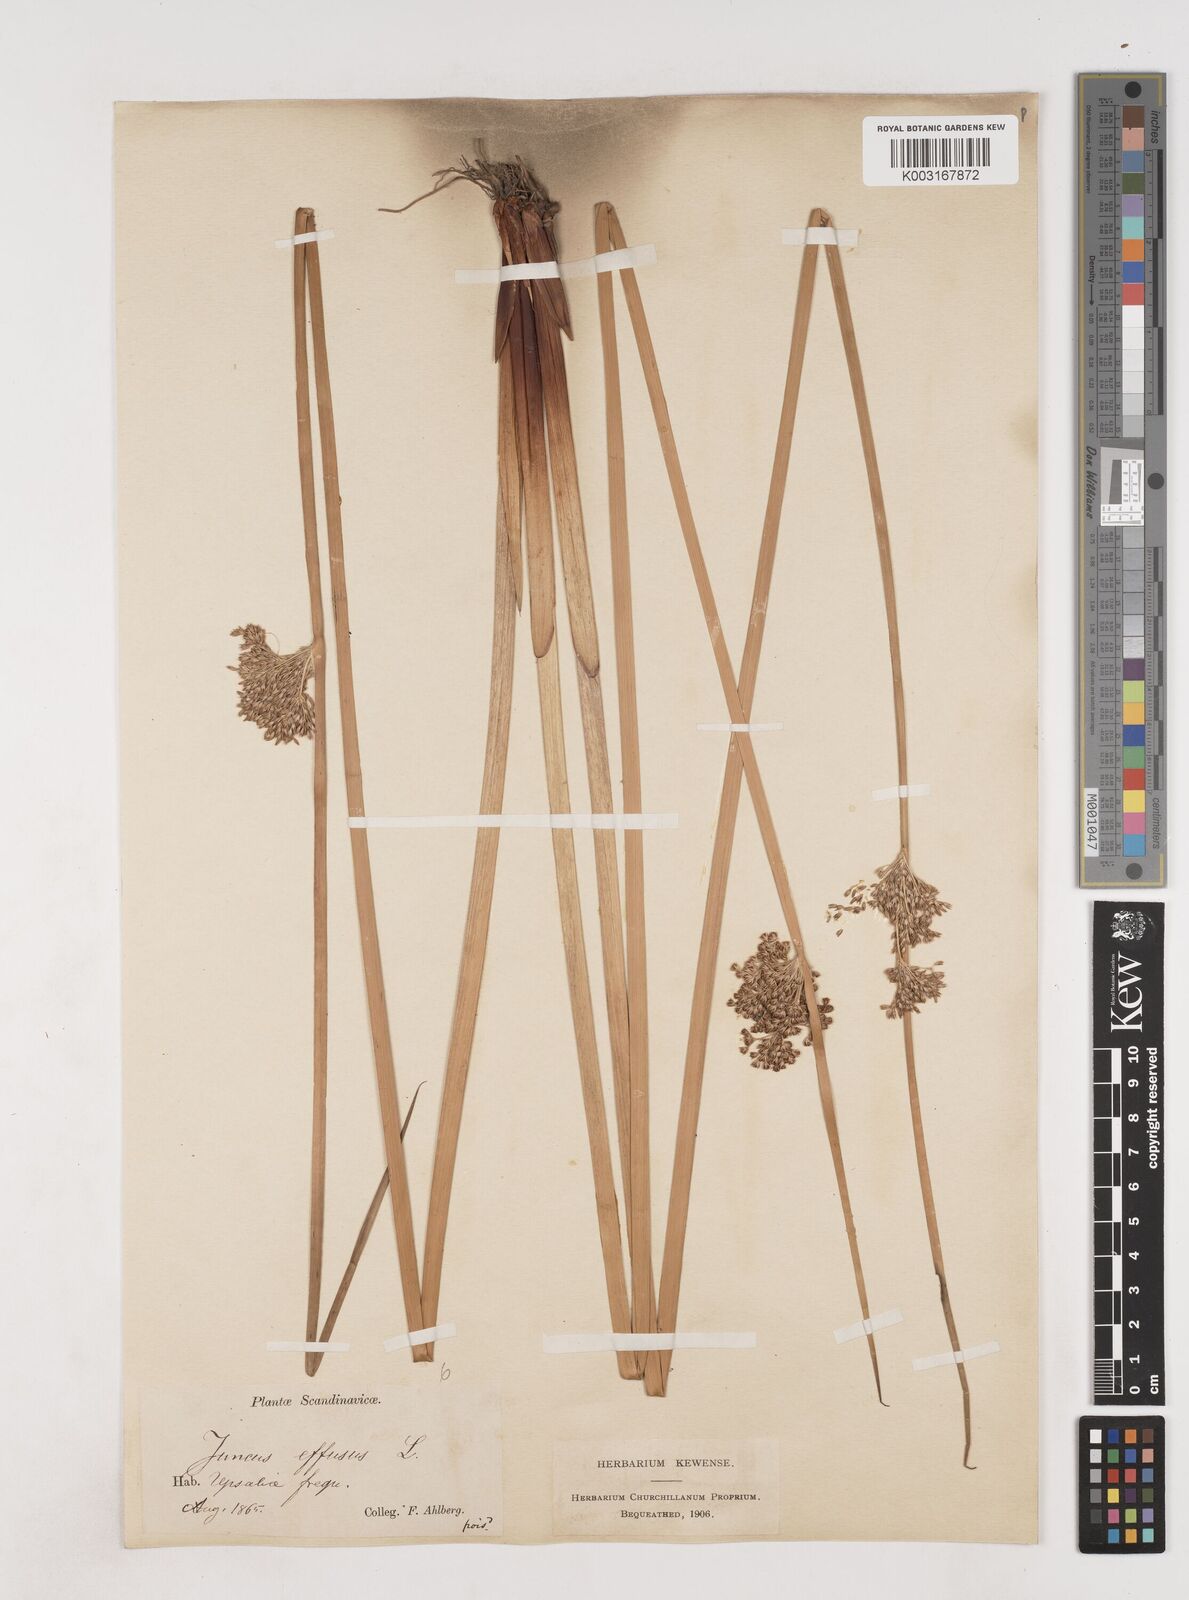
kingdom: Plantae
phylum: Tracheophyta
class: Liliopsida
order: Poales
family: Juncaceae
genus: Juncus
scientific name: Juncus effusus
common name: Soft rush
